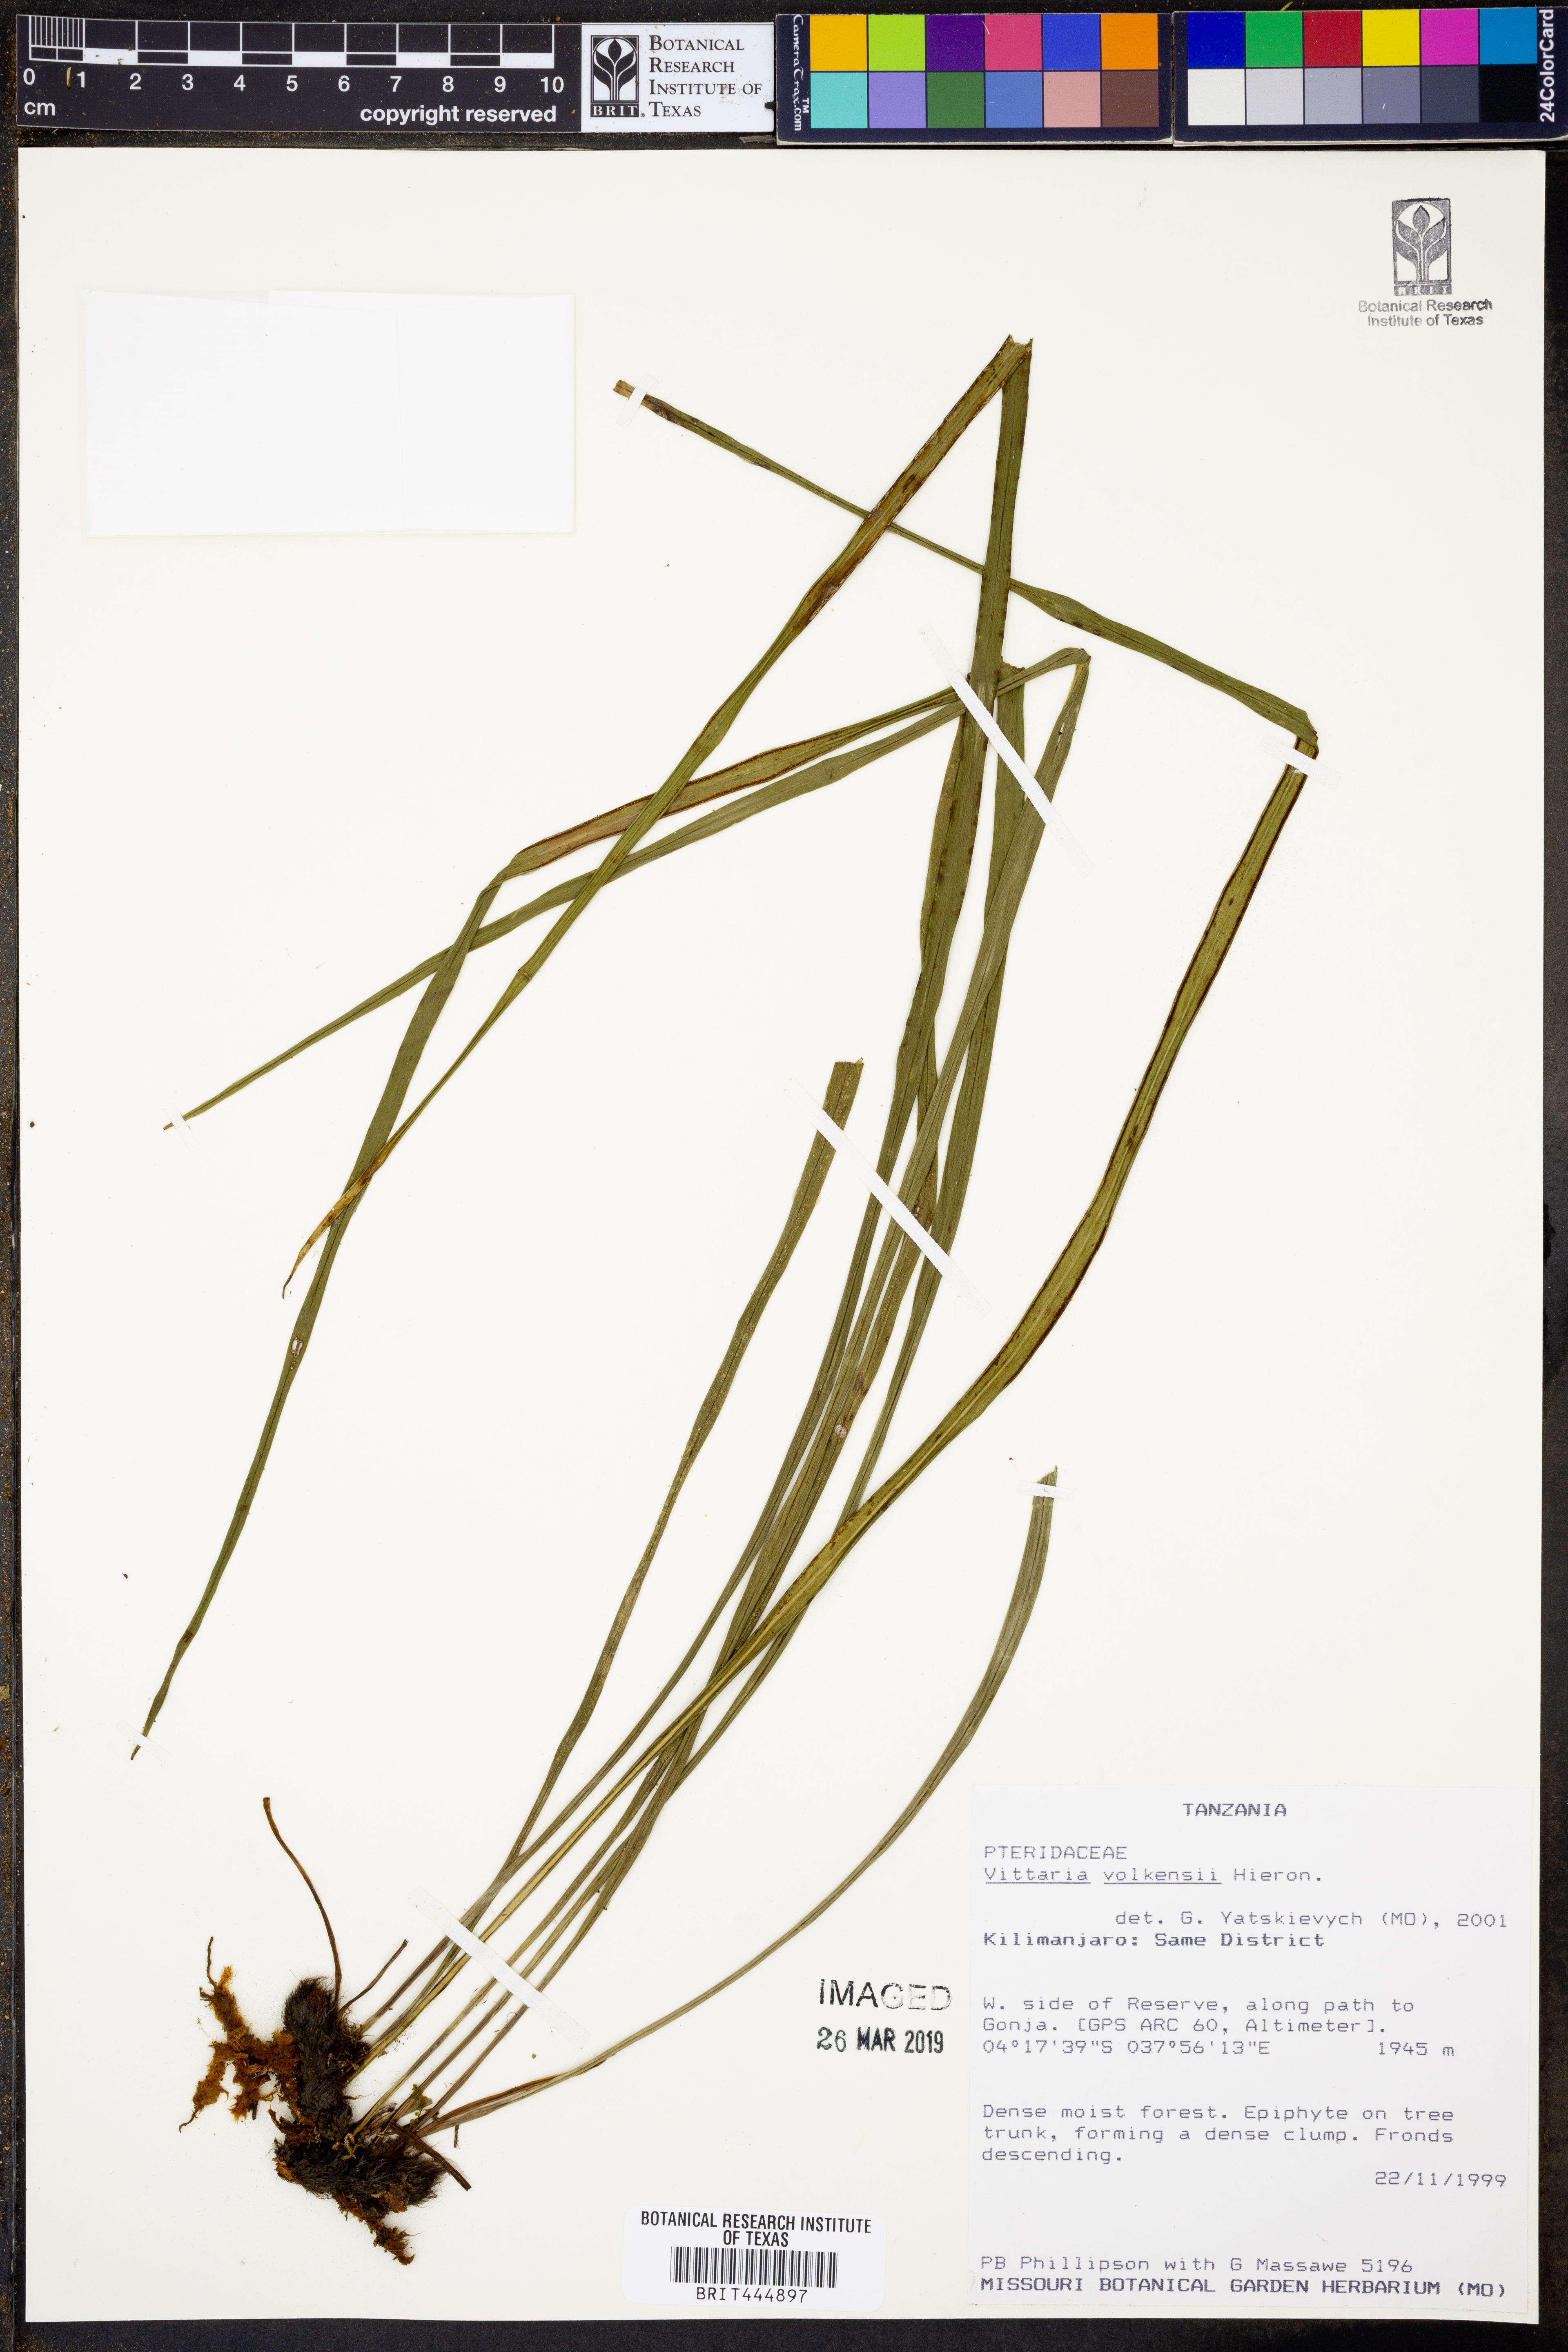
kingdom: Plantae
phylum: Tracheophyta
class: Polypodiopsida
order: Polypodiales
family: Pteridaceae
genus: Haplopteris
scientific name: Haplopteris volkensii
